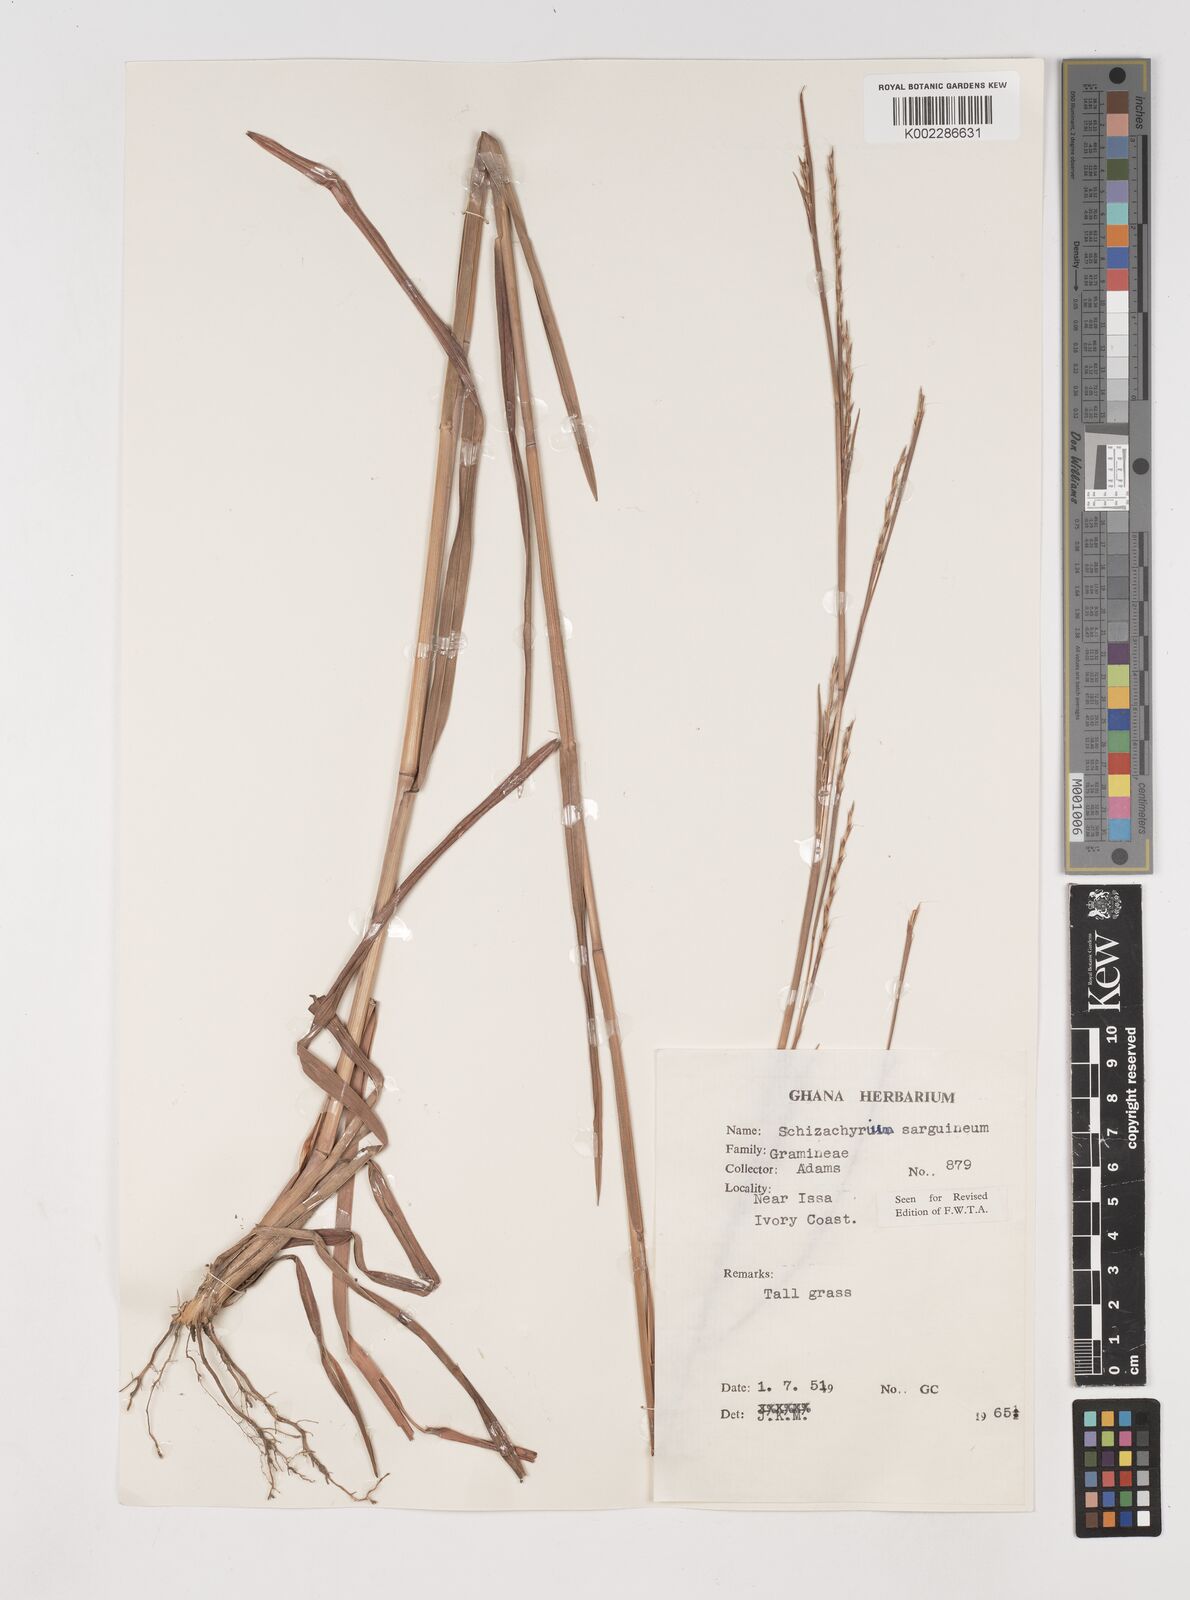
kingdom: Plantae
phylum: Tracheophyta
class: Liliopsida
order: Poales
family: Poaceae
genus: Schizachyrium
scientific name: Schizachyrium sanguineum
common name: Crimson bluestem
